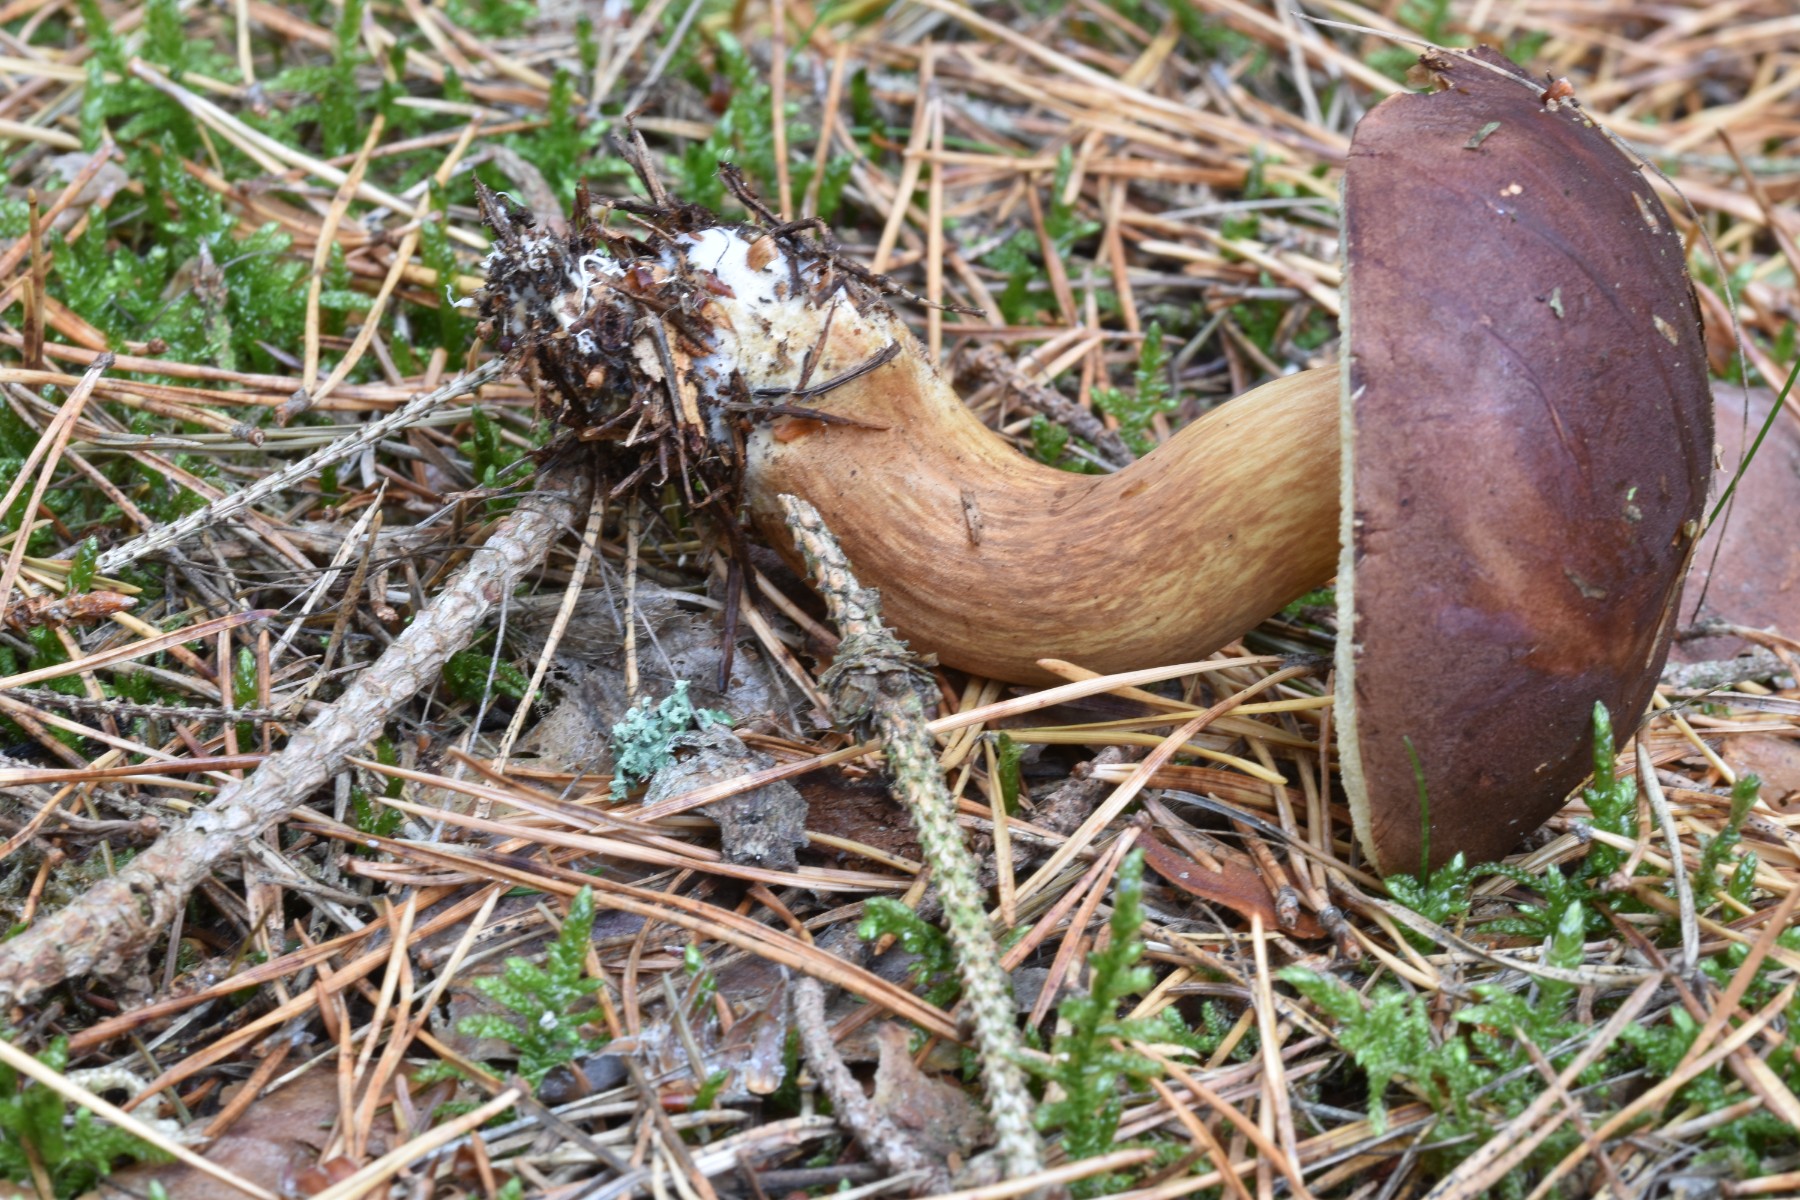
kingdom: Fungi
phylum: Basidiomycota
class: Agaricomycetes
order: Boletales
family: Boletaceae
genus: Imleria
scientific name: Imleria badia
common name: brunstokket rørhat
